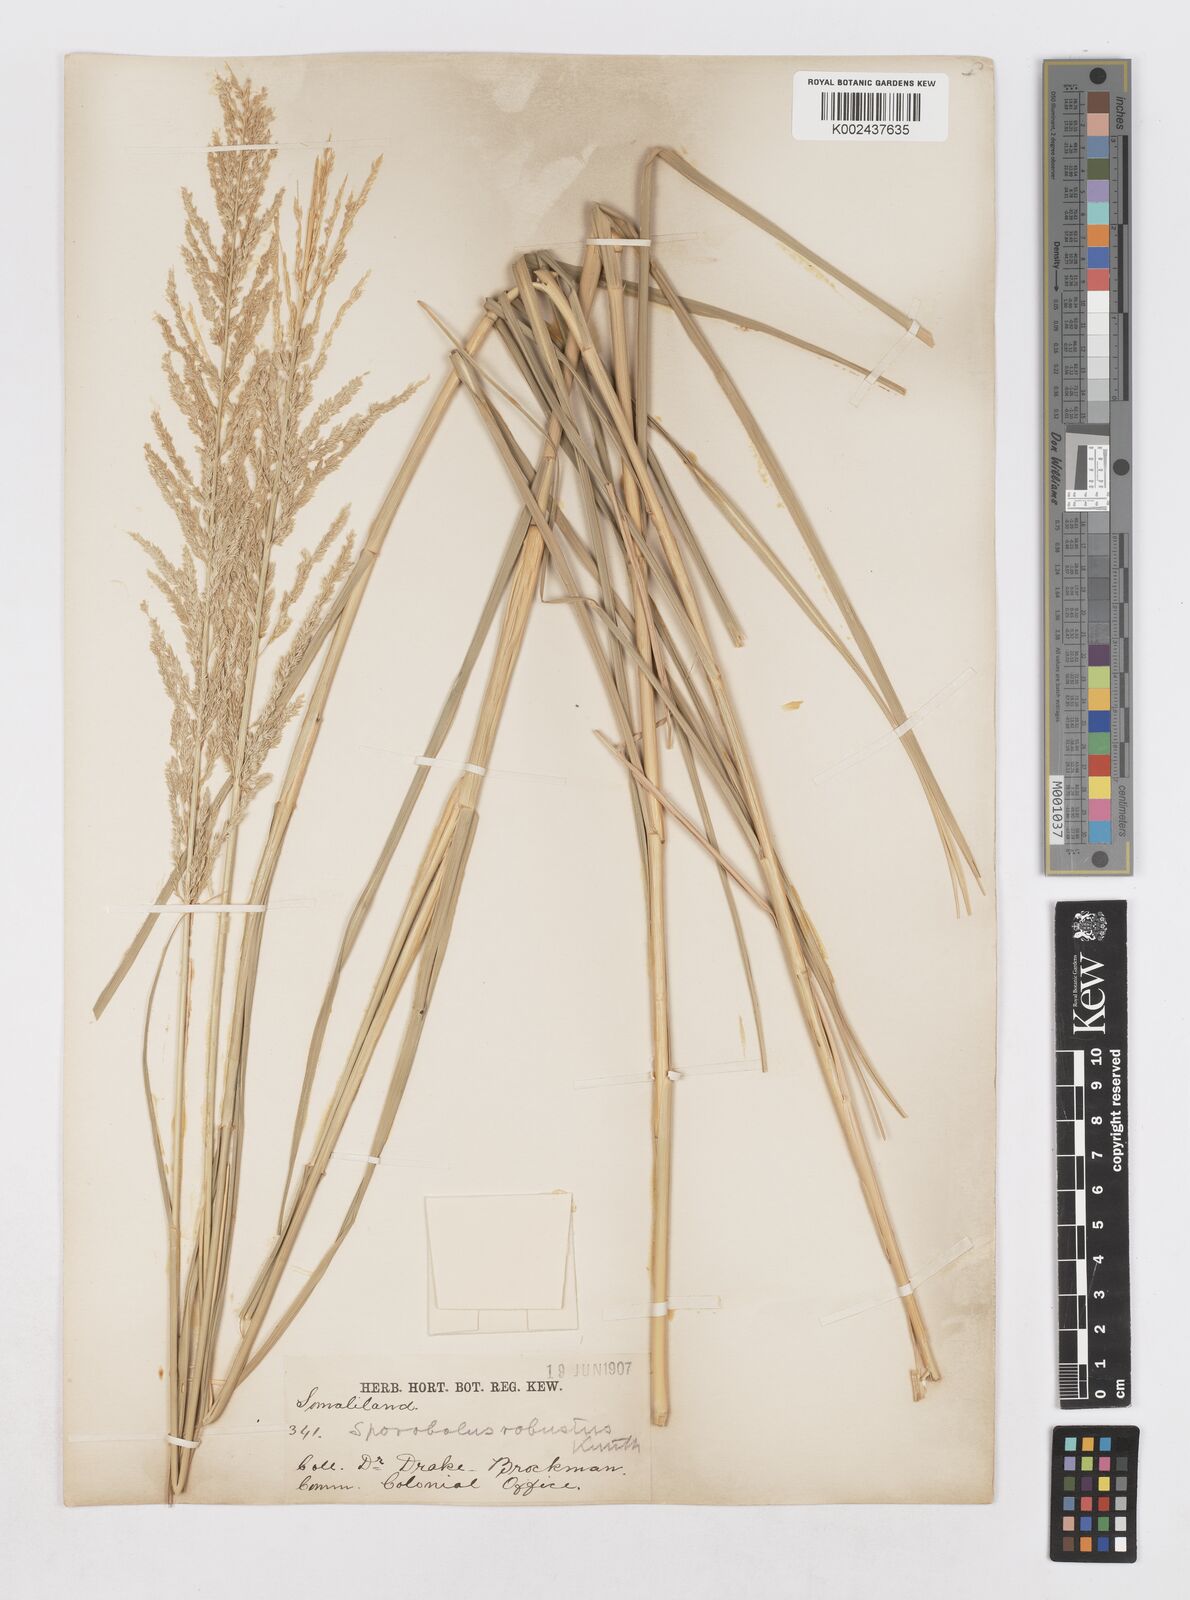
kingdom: Plantae
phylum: Tracheophyta
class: Liliopsida
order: Poales
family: Poaceae
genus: Sporobolus
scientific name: Sporobolus consimilis
